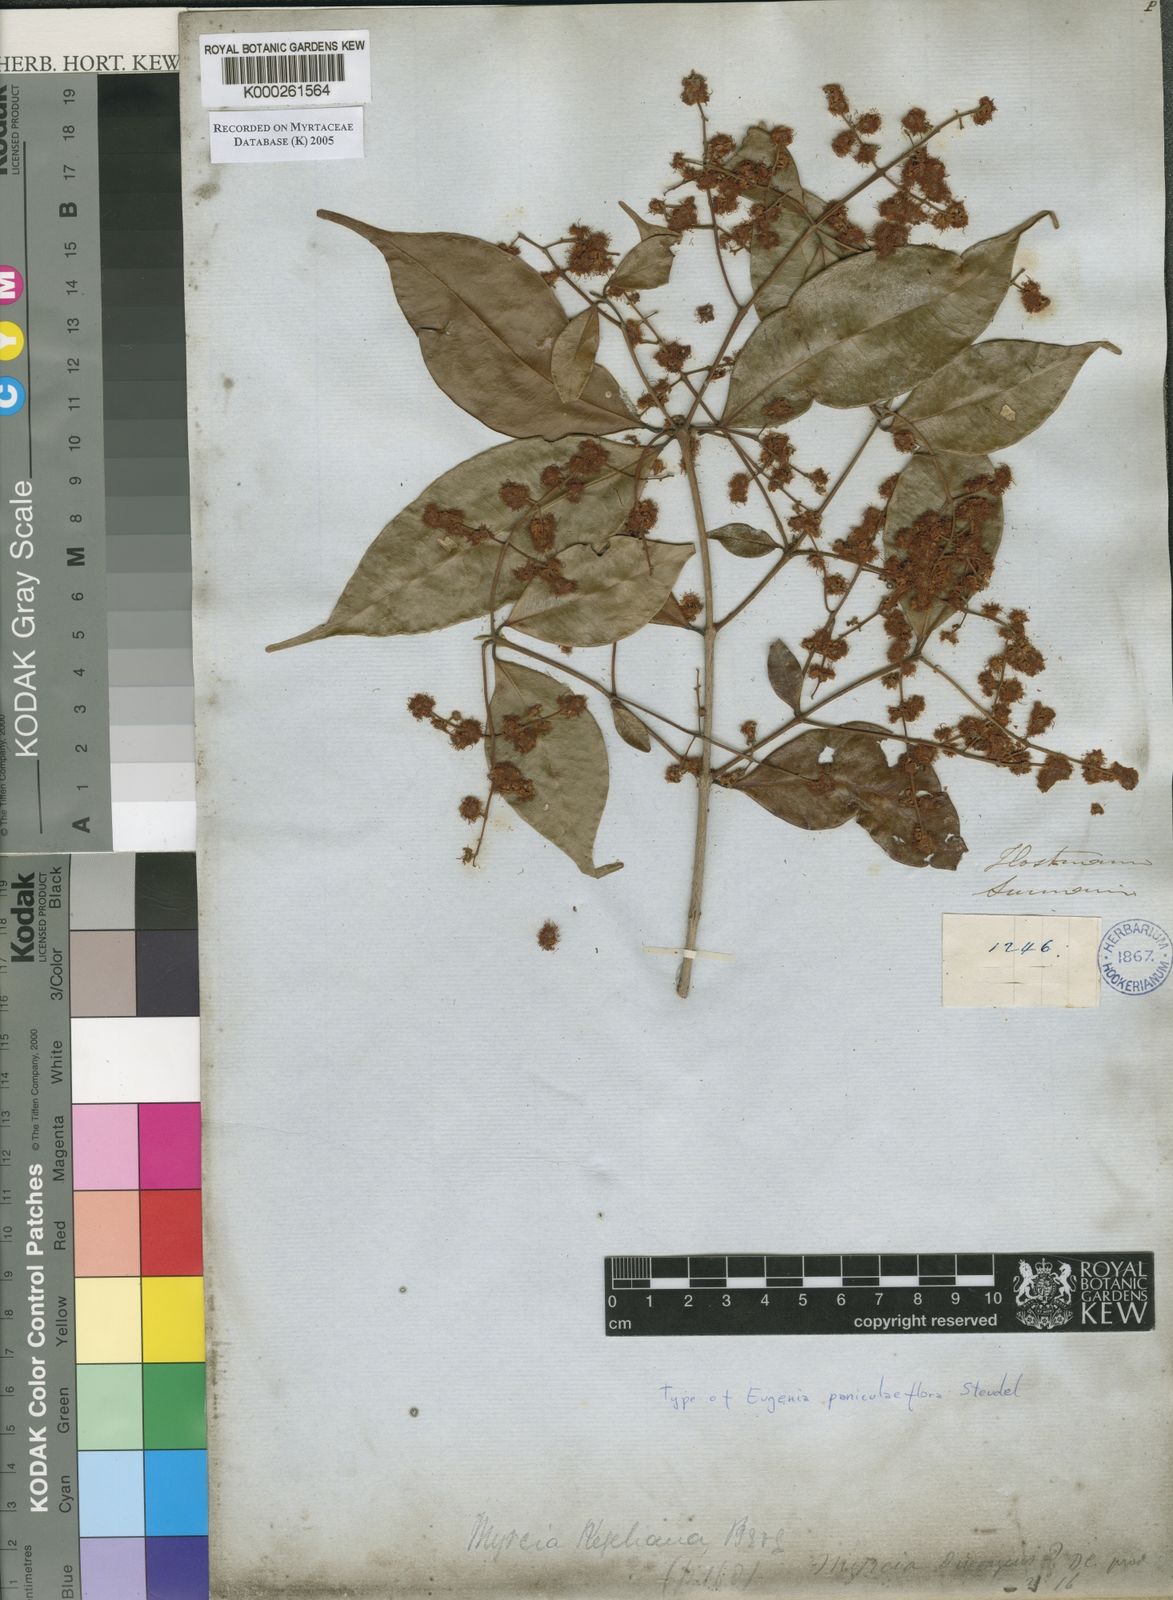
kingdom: Plantae
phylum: Tracheophyta
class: Magnoliopsida
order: Myrtales
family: Myrtaceae
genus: Myrcia
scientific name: Myrcia splendens
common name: Surinam cherry
